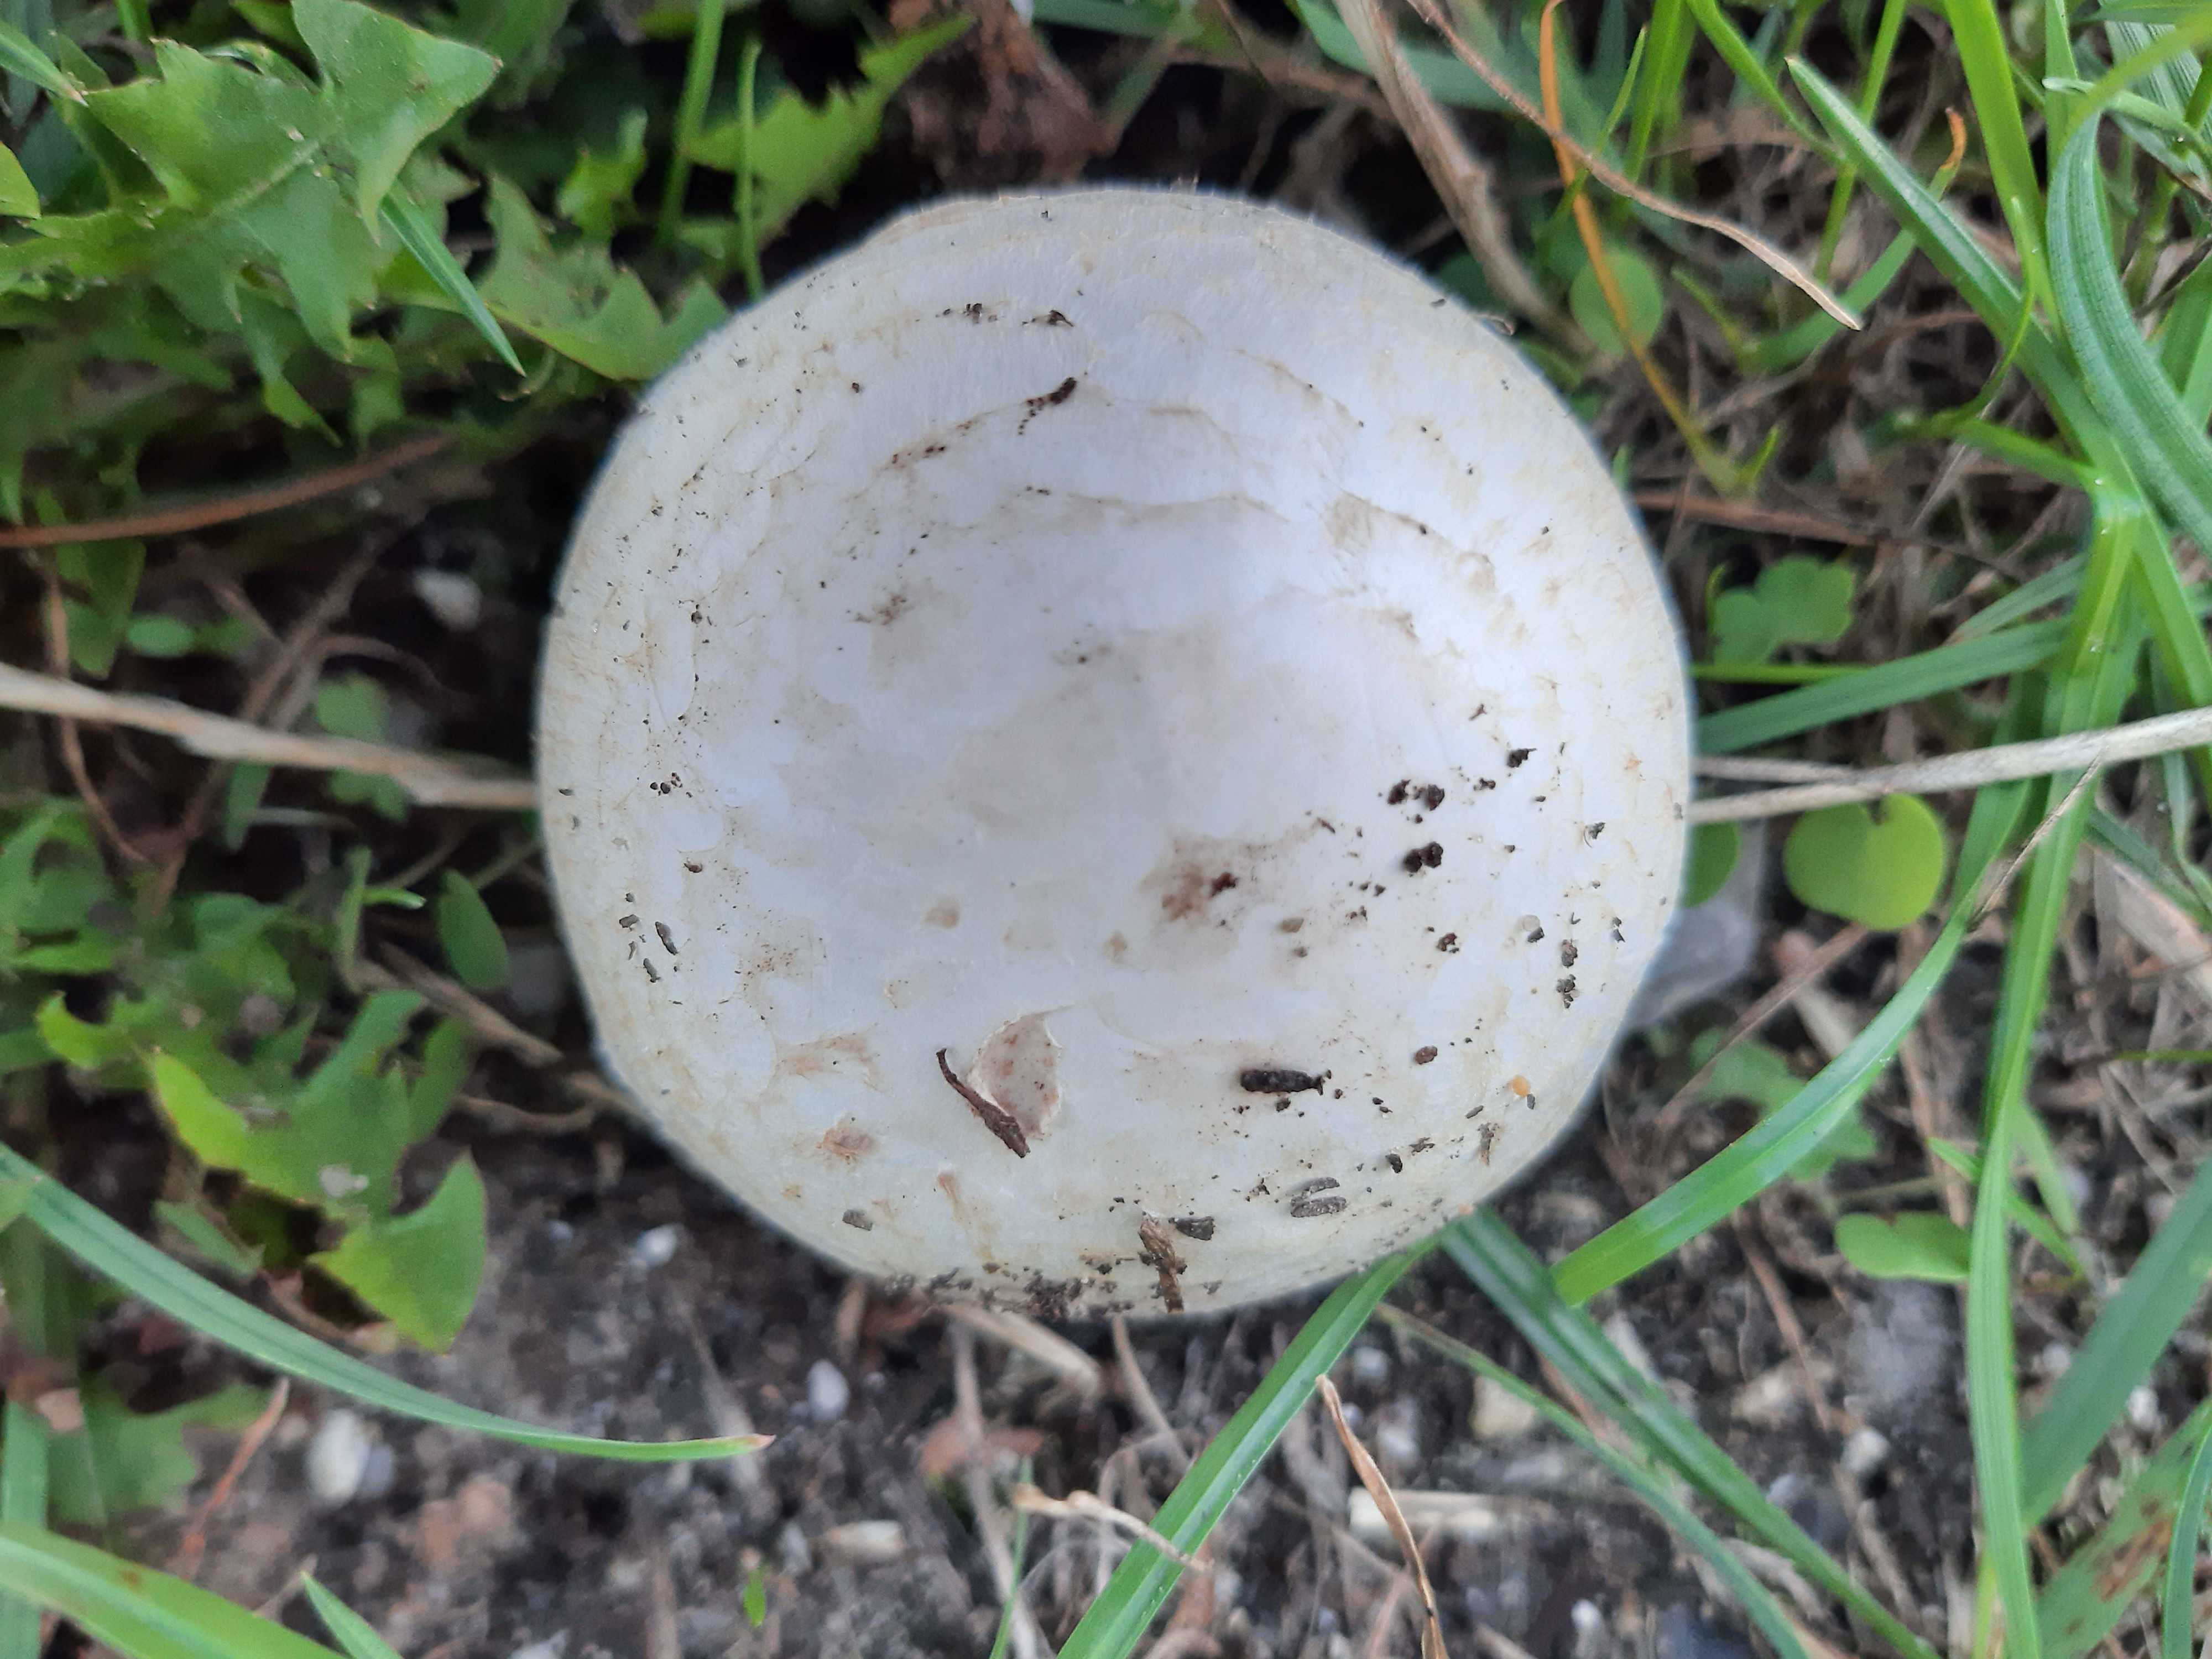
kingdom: Fungi
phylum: Basidiomycota
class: Agaricomycetes
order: Agaricales
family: Agaricaceae
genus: Agaricus
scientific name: Agaricus campestris
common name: mark-champignon
